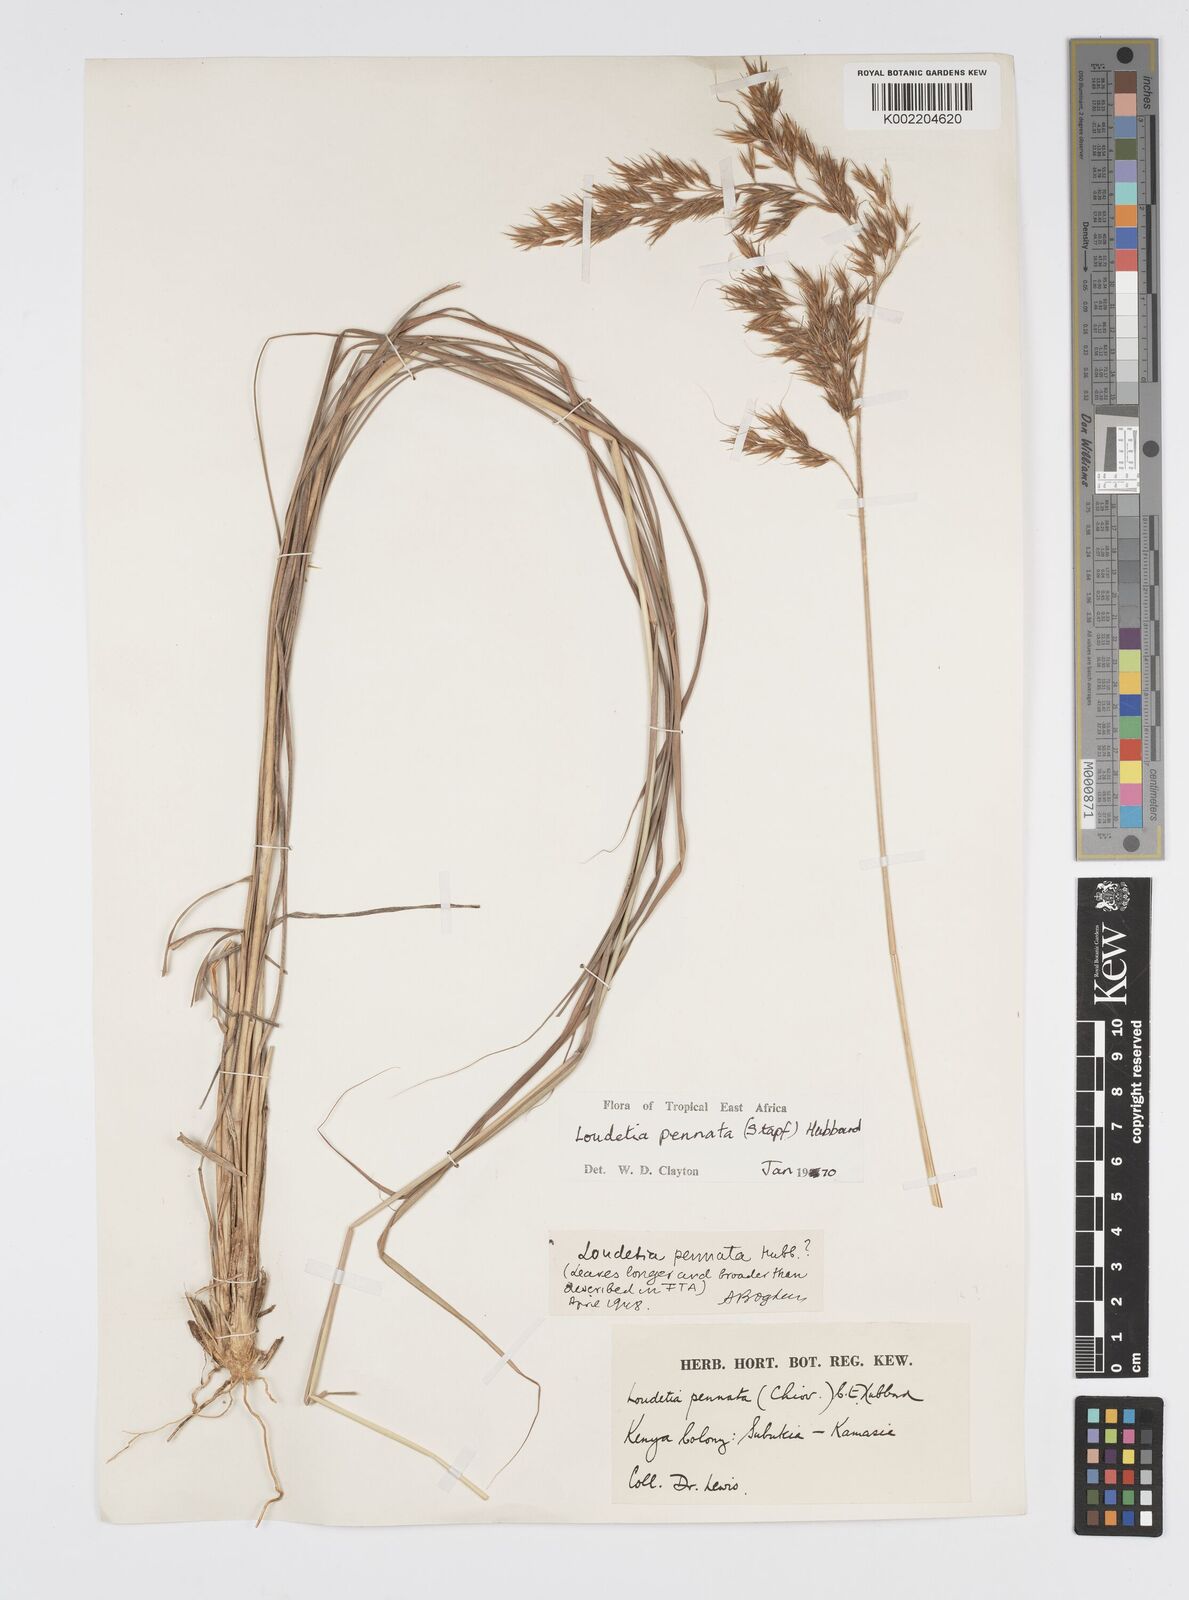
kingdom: Plantae
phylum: Tracheophyta
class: Liliopsida
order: Poales
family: Poaceae
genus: Loudetia
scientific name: Loudetia flavida
